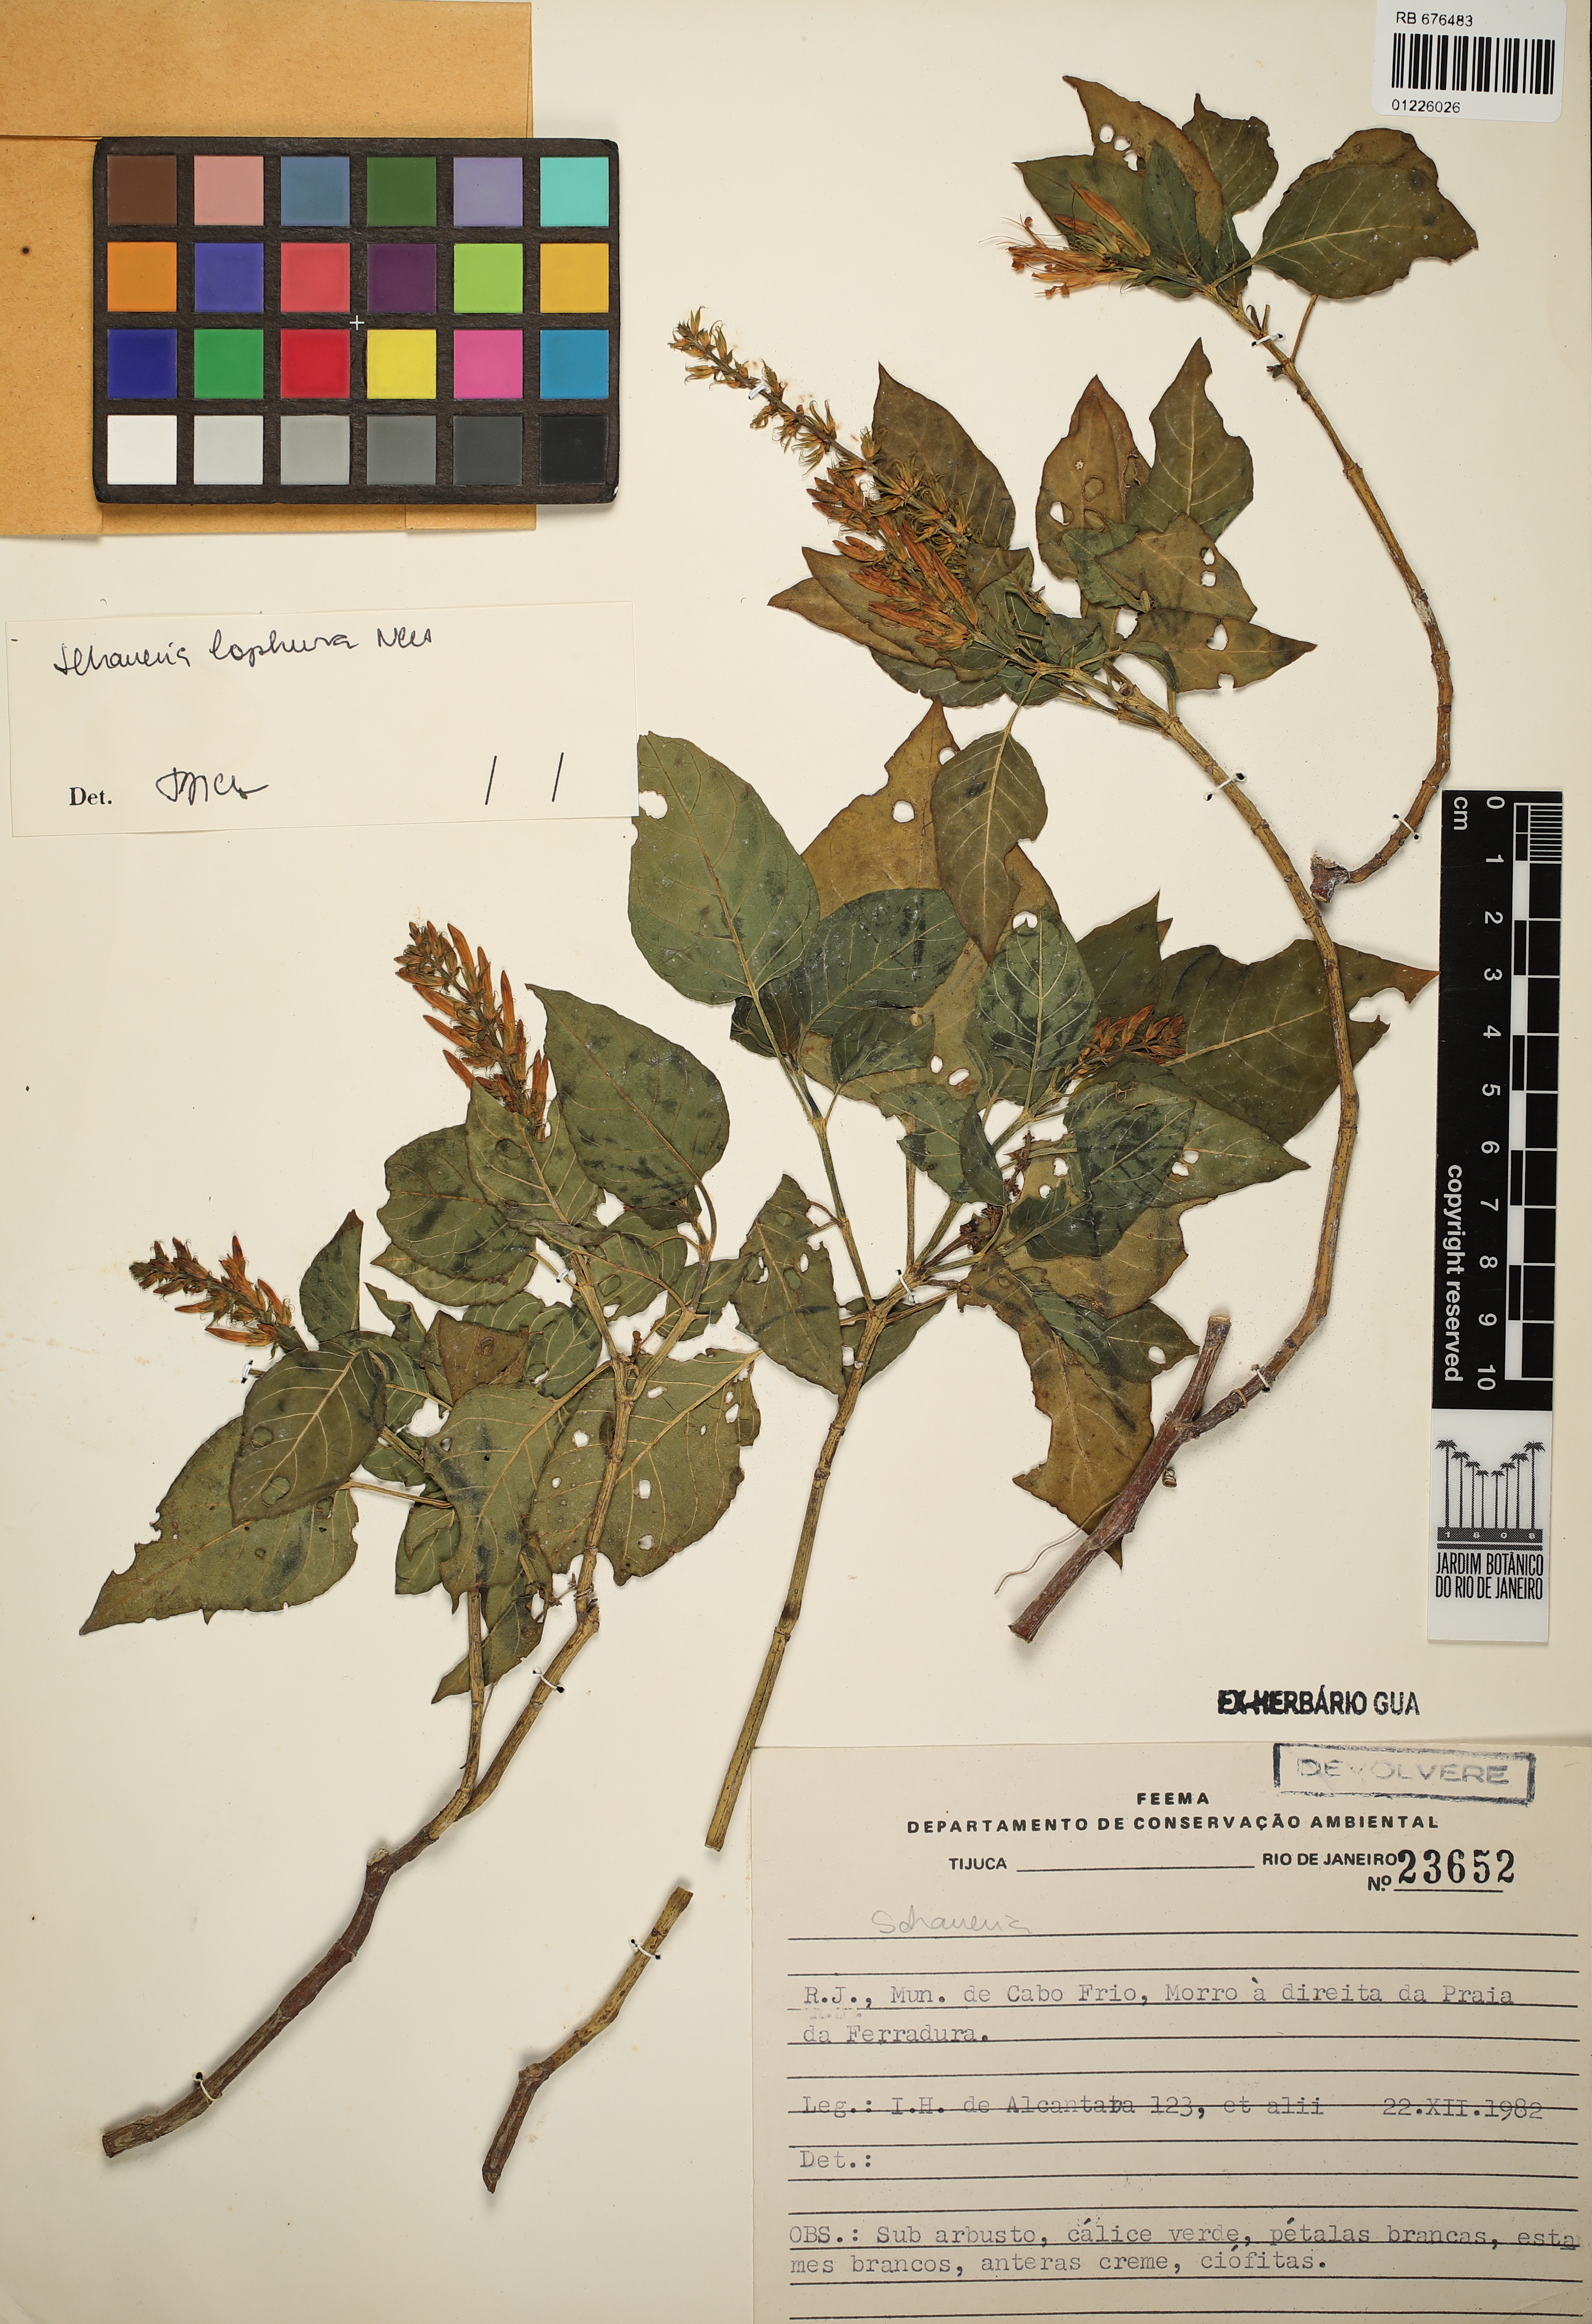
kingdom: Plantae
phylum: Tracheophyta
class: Magnoliopsida
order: Lamiales
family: Acanthaceae
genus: Schaueria
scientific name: Schaueria litoralis
